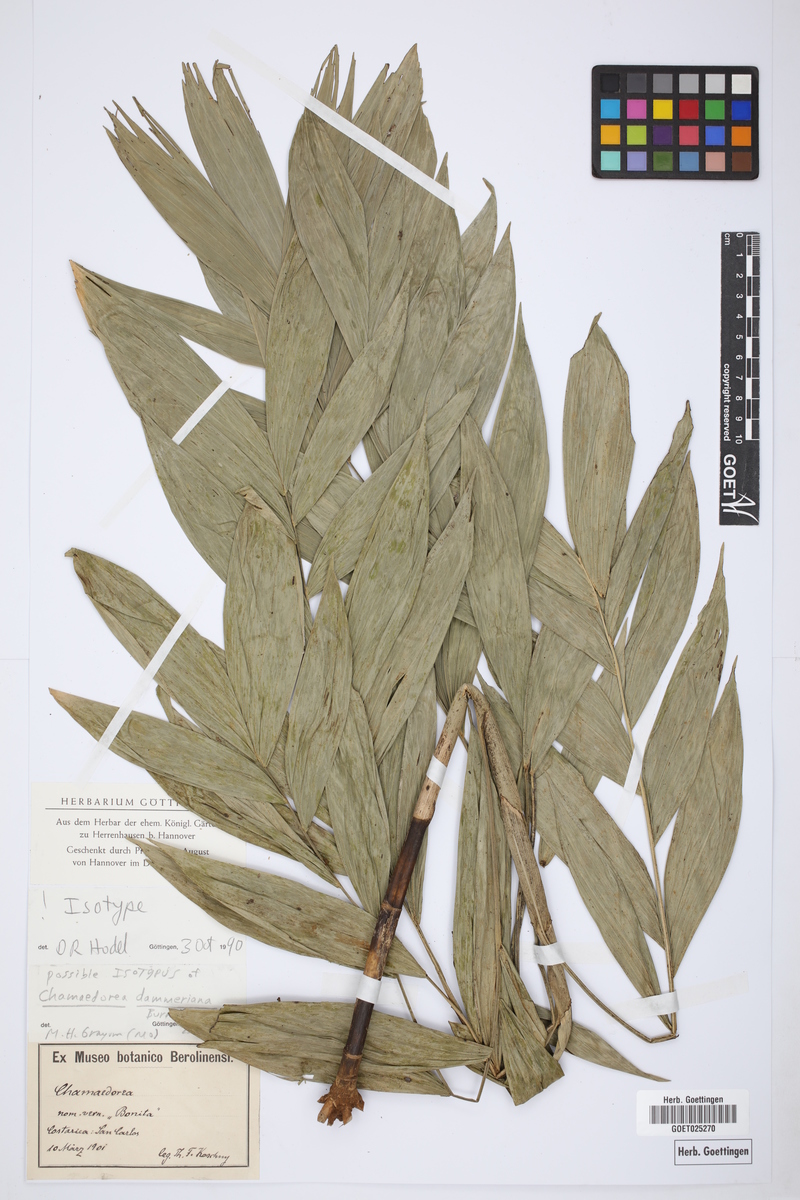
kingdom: Plantae
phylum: Tracheophyta
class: Liliopsida
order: Arecales
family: Arecaceae
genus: Chamaedorea
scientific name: Chamaedorea dammeriana
